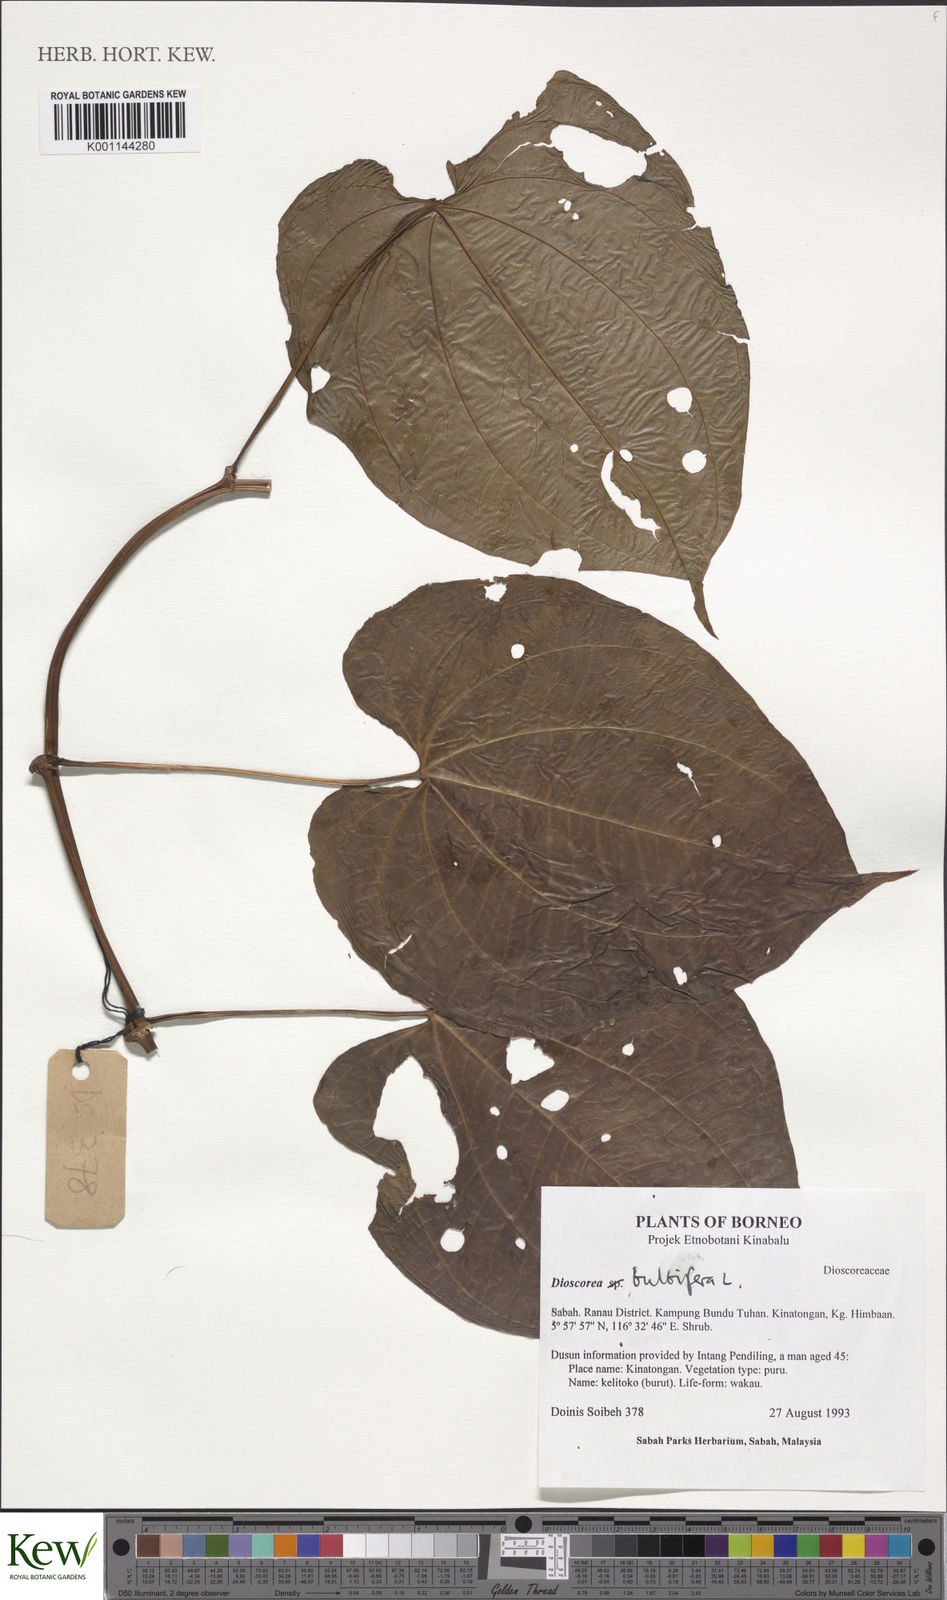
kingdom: Plantae
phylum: Tracheophyta
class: Liliopsida
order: Dioscoreales
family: Dioscoreaceae
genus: Dioscorea
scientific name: Dioscorea bulbifera
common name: Air yam
